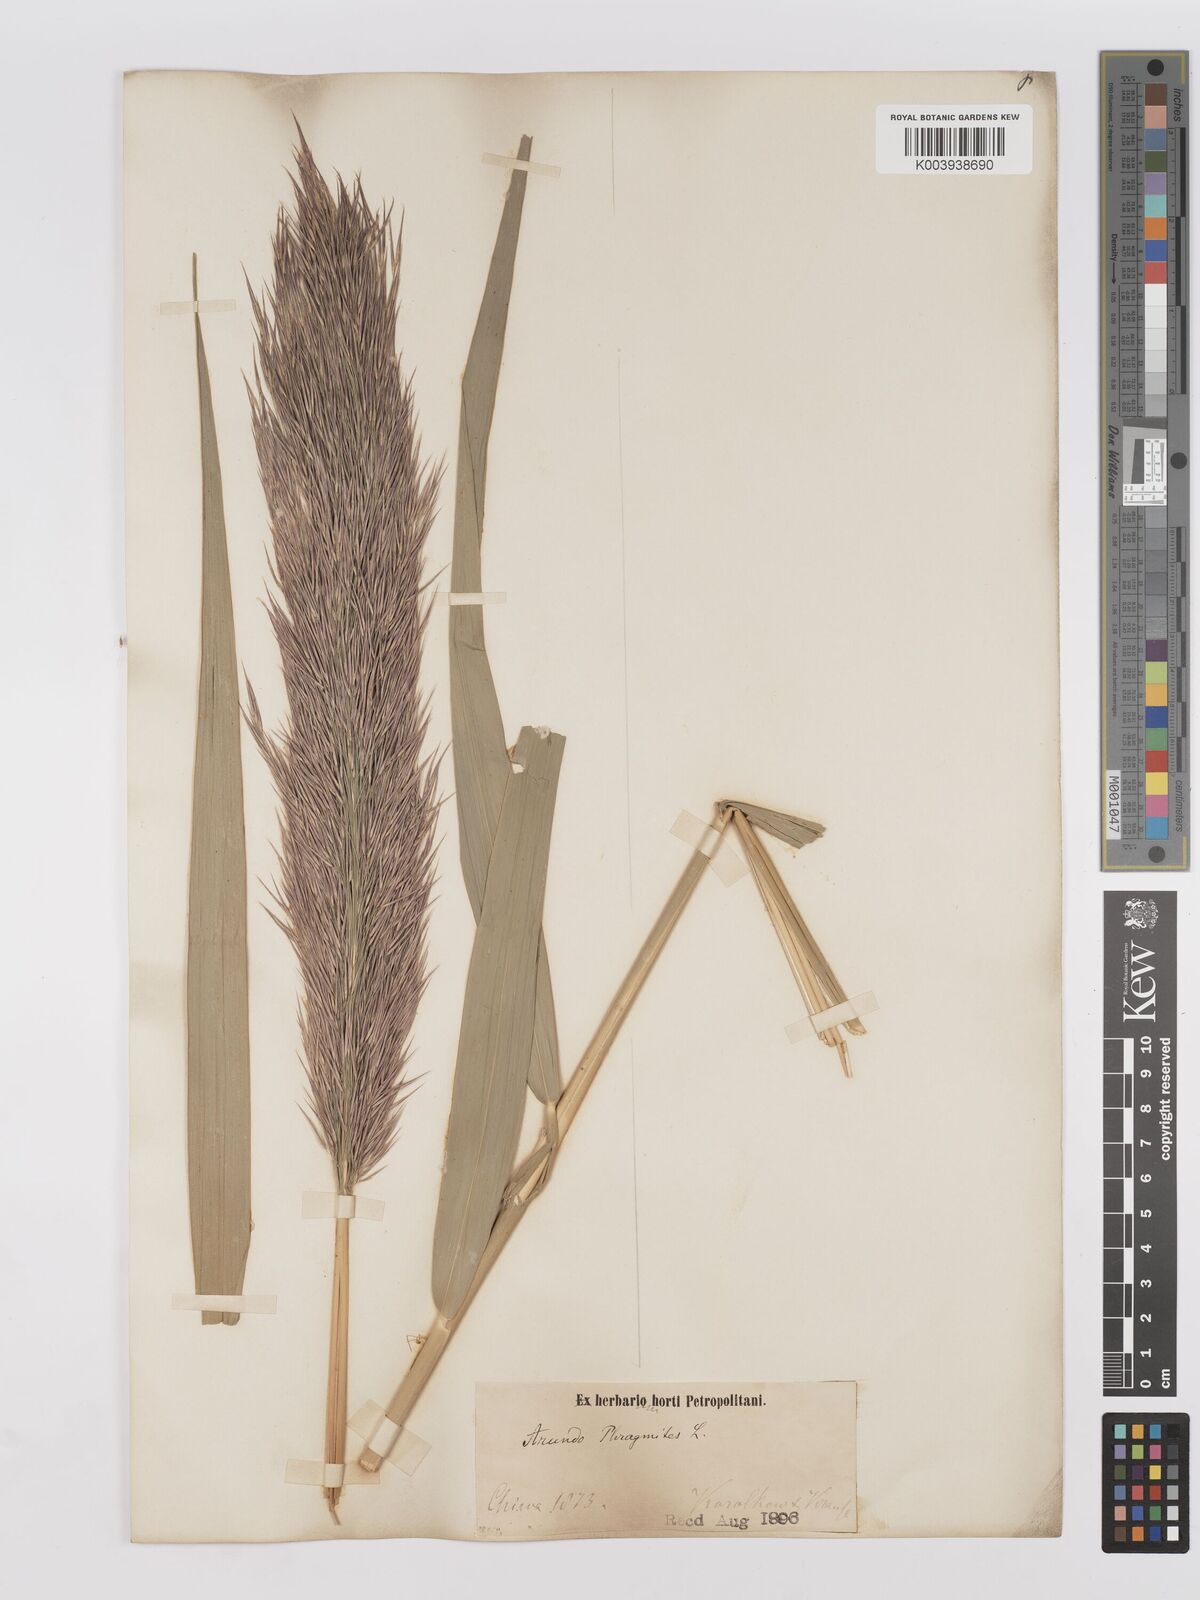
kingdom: Plantae
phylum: Tracheophyta
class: Liliopsida
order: Poales
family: Poaceae
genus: Phragmites
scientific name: Phragmites australis
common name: Common reed
